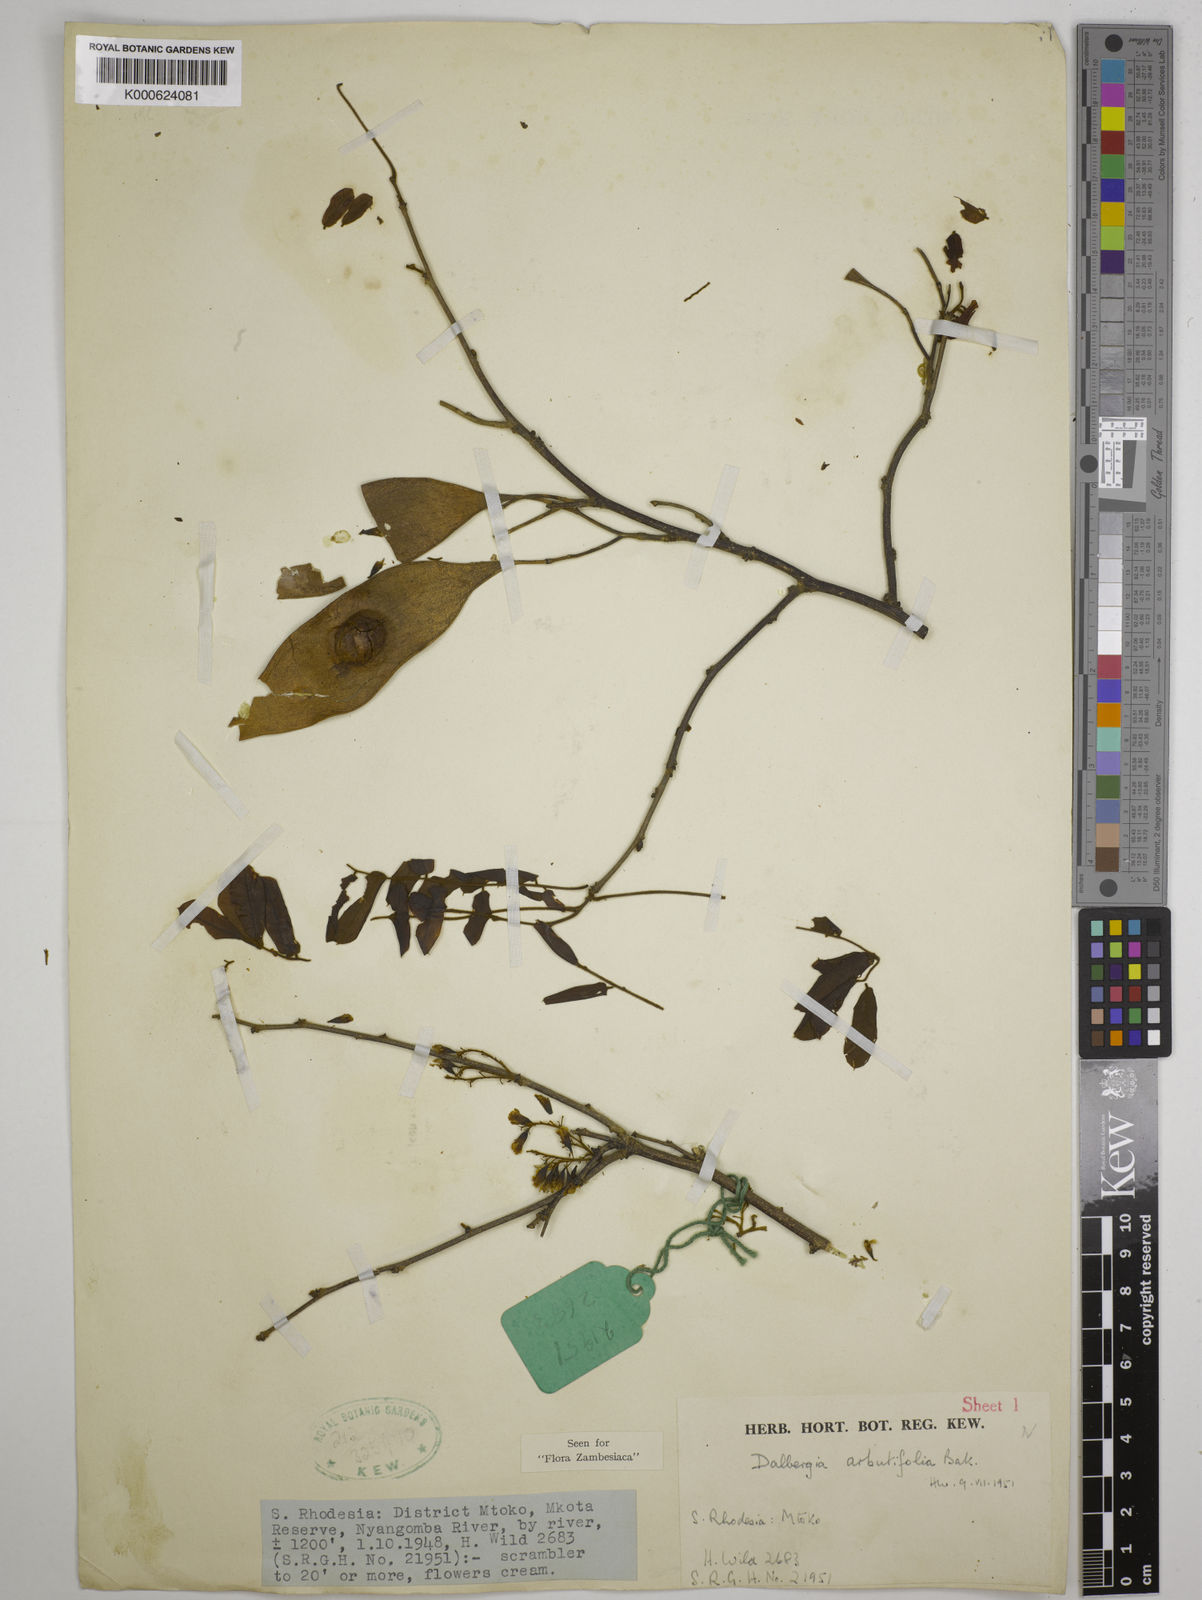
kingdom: Plantae
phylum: Tracheophyta
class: Magnoliopsida
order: Fabales
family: Fabaceae
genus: Dalbergia
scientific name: Dalbergia arbutifolia
